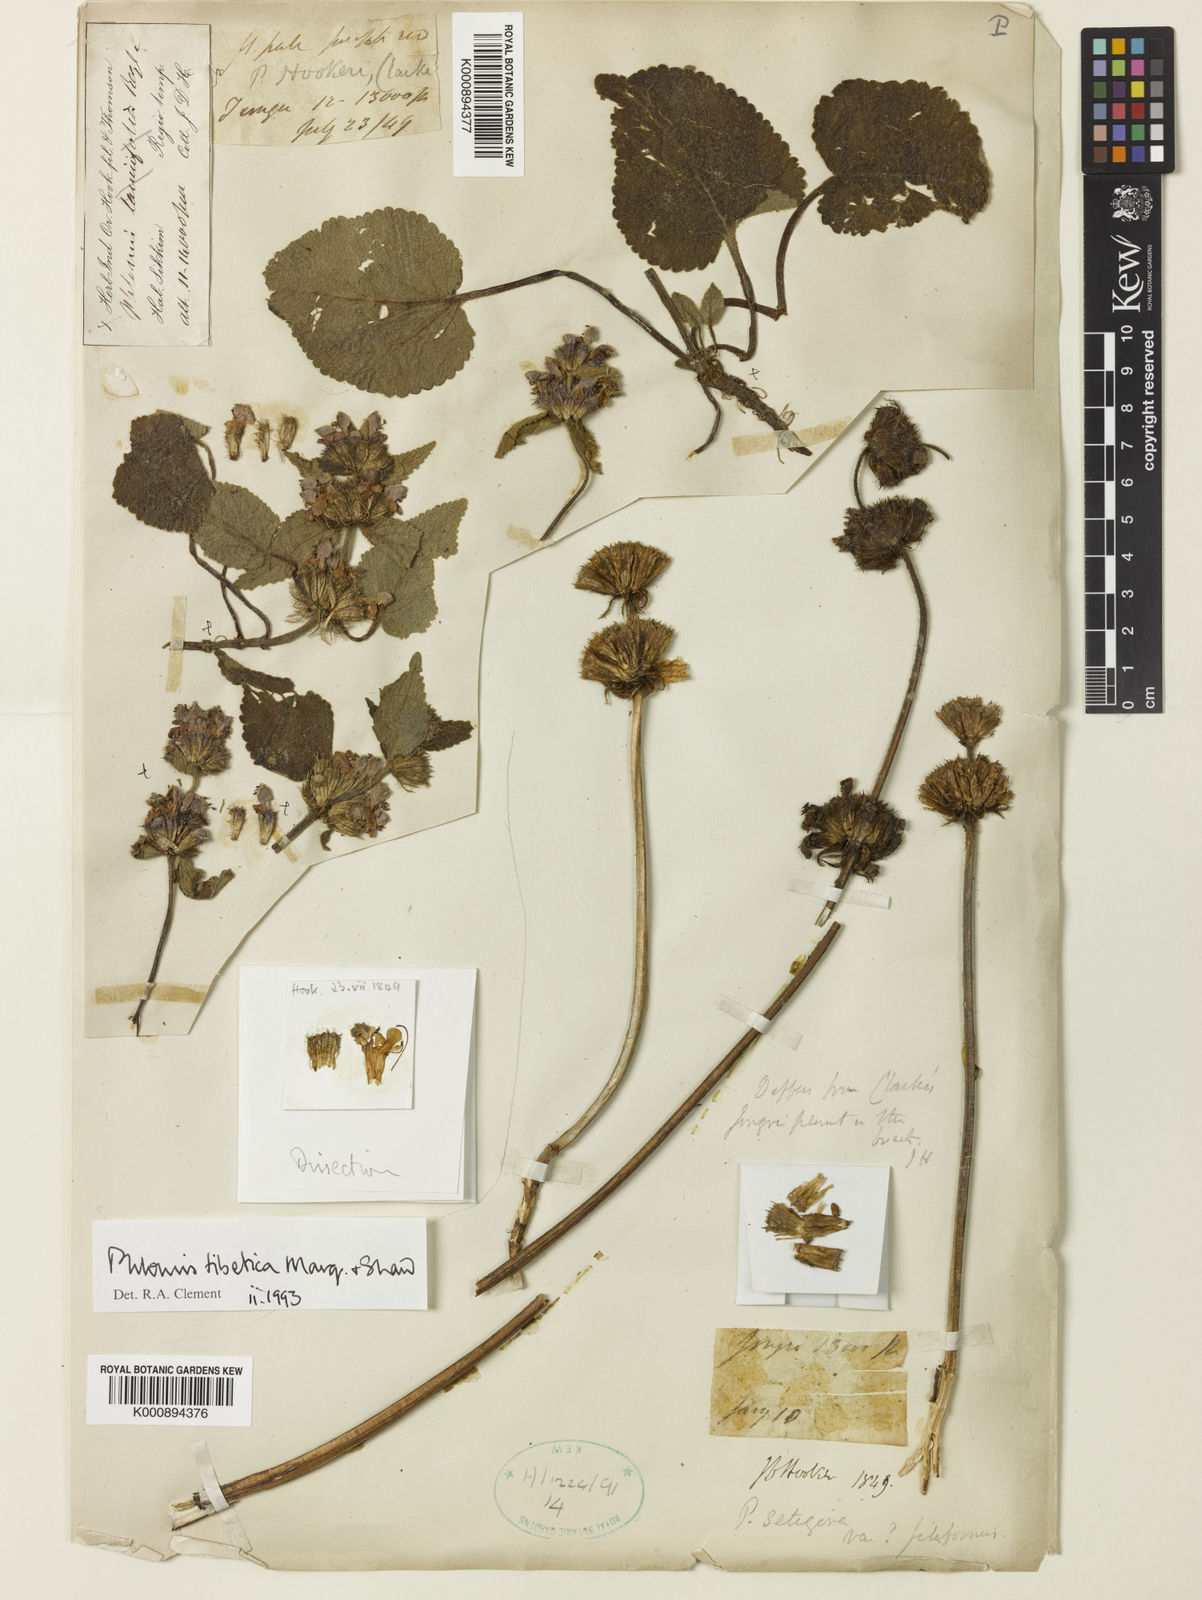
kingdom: Plantae
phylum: Tracheophyta
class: Magnoliopsida
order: Lamiales
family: Lamiaceae
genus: Phlomoides
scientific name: Phlomoides tibetica
